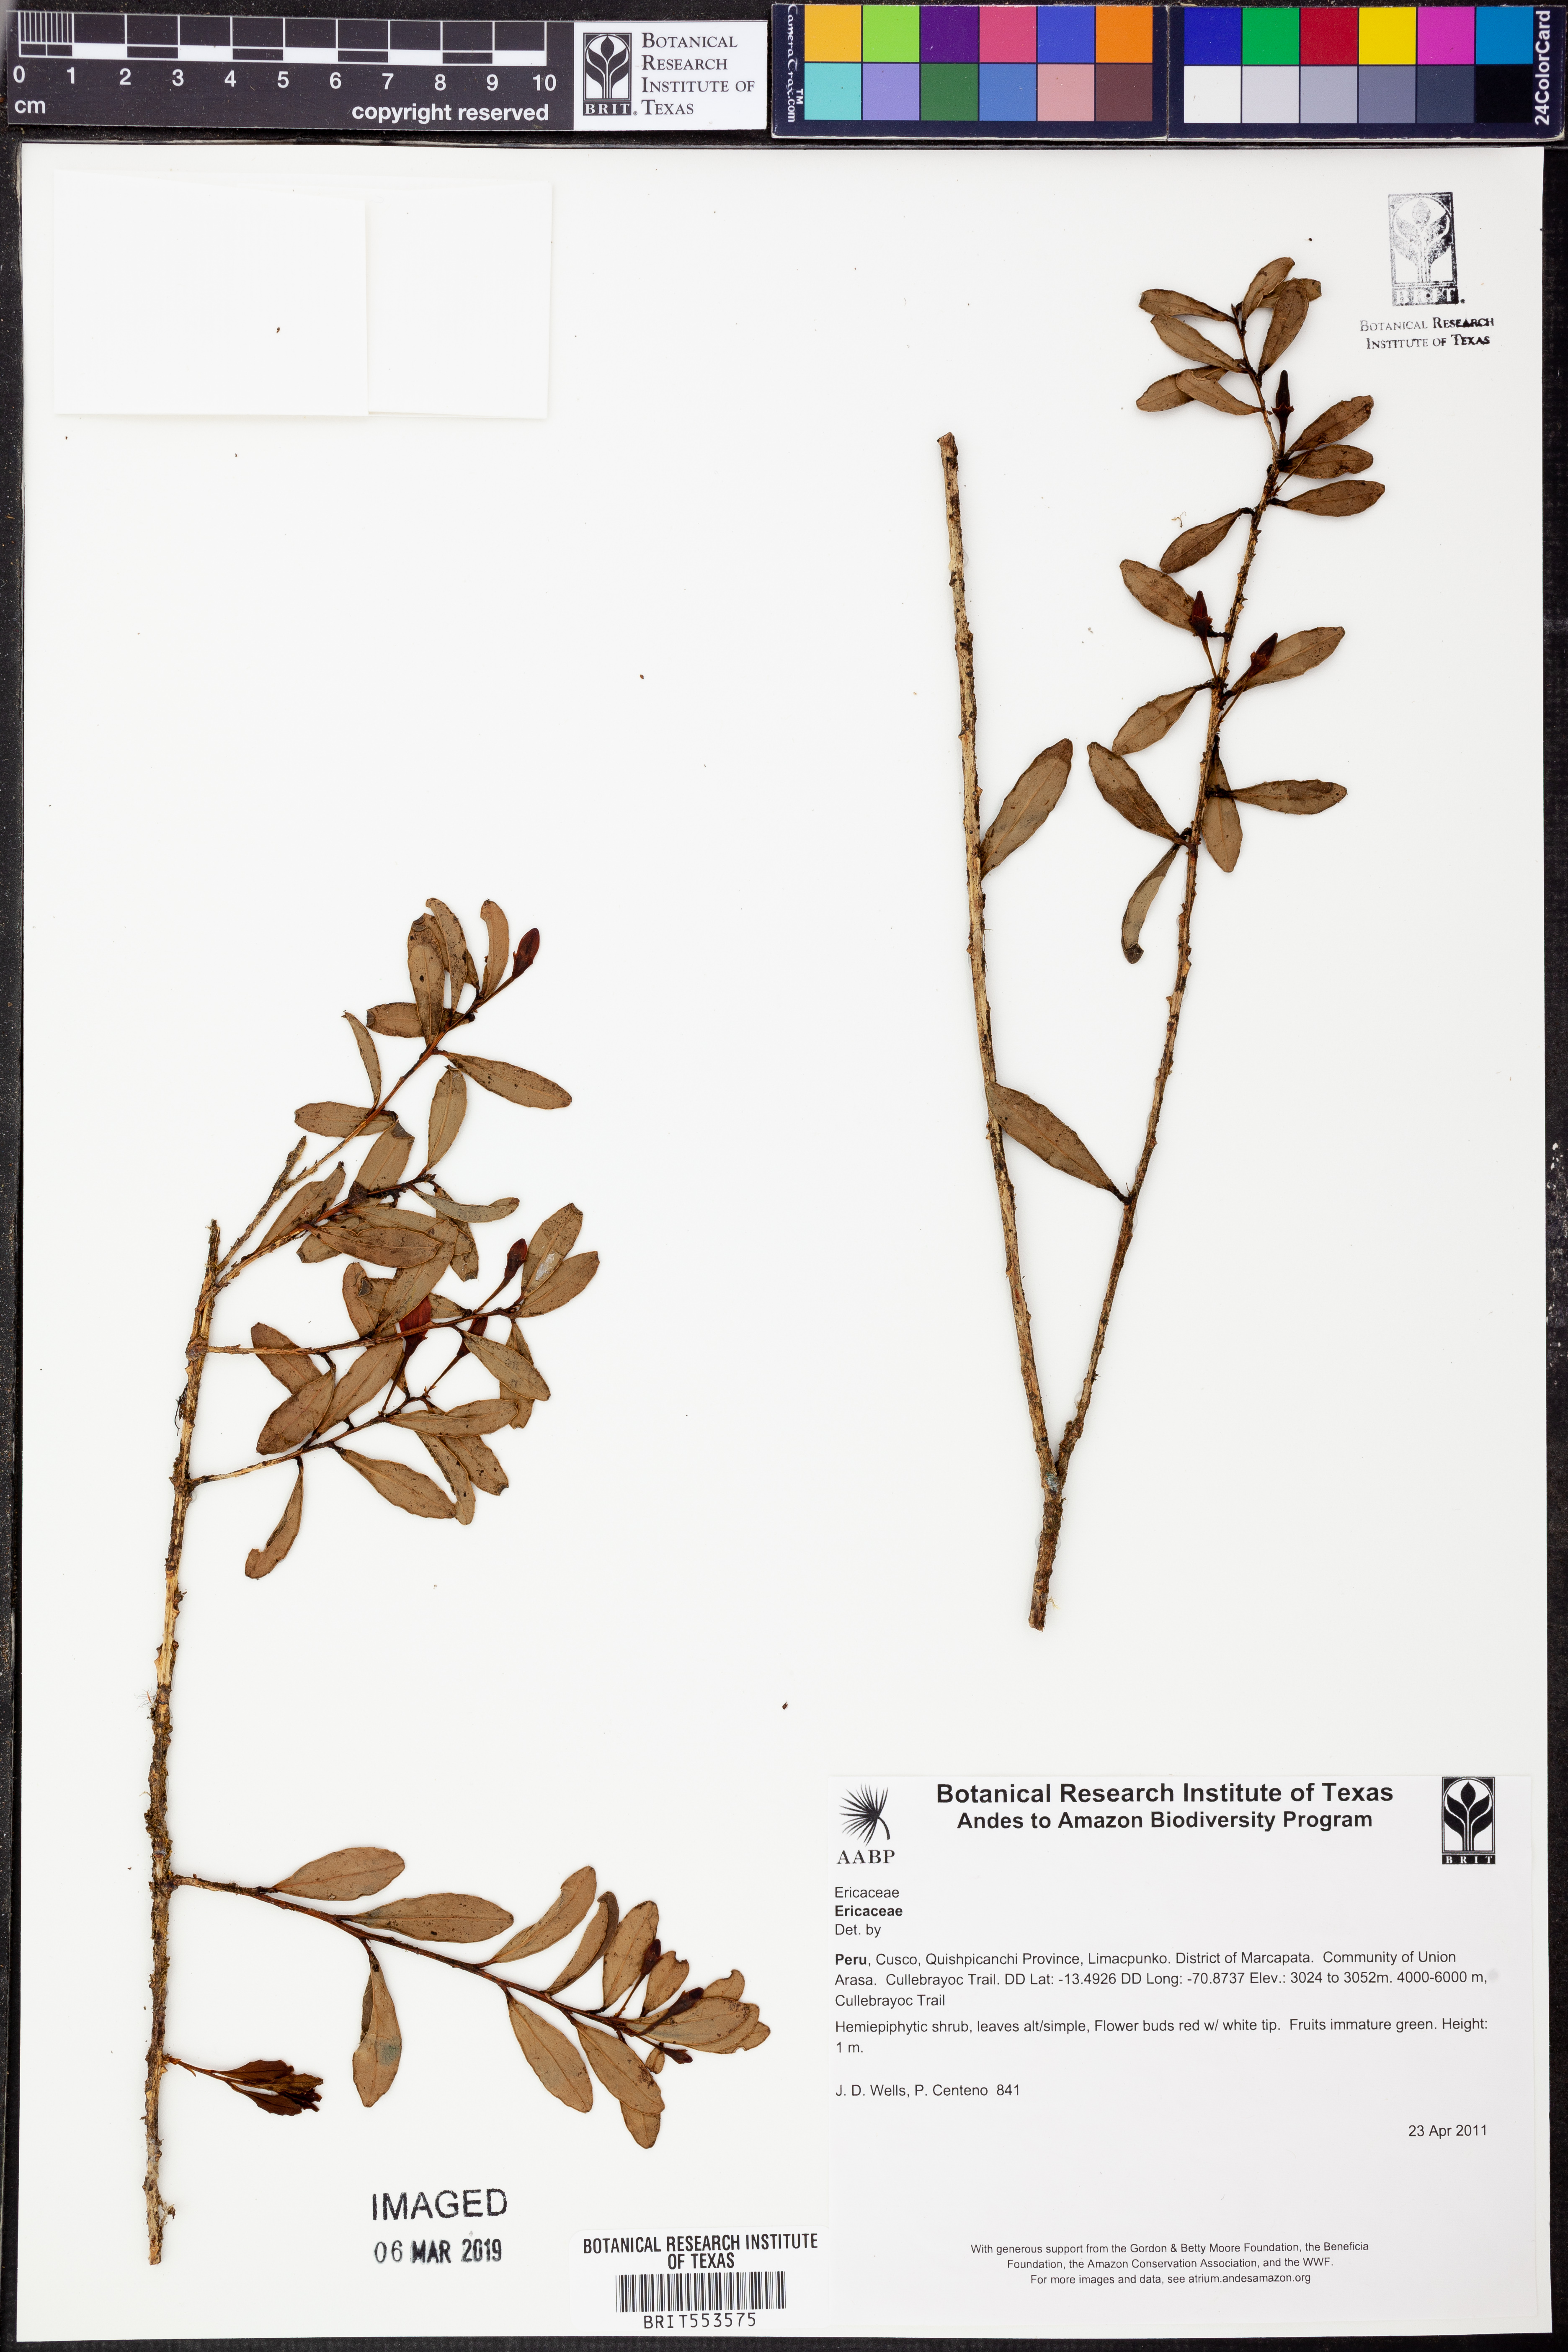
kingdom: Plantae
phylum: Tracheophyta
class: Magnoliopsida
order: Ericales
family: Ericaceae
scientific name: Ericaceae
